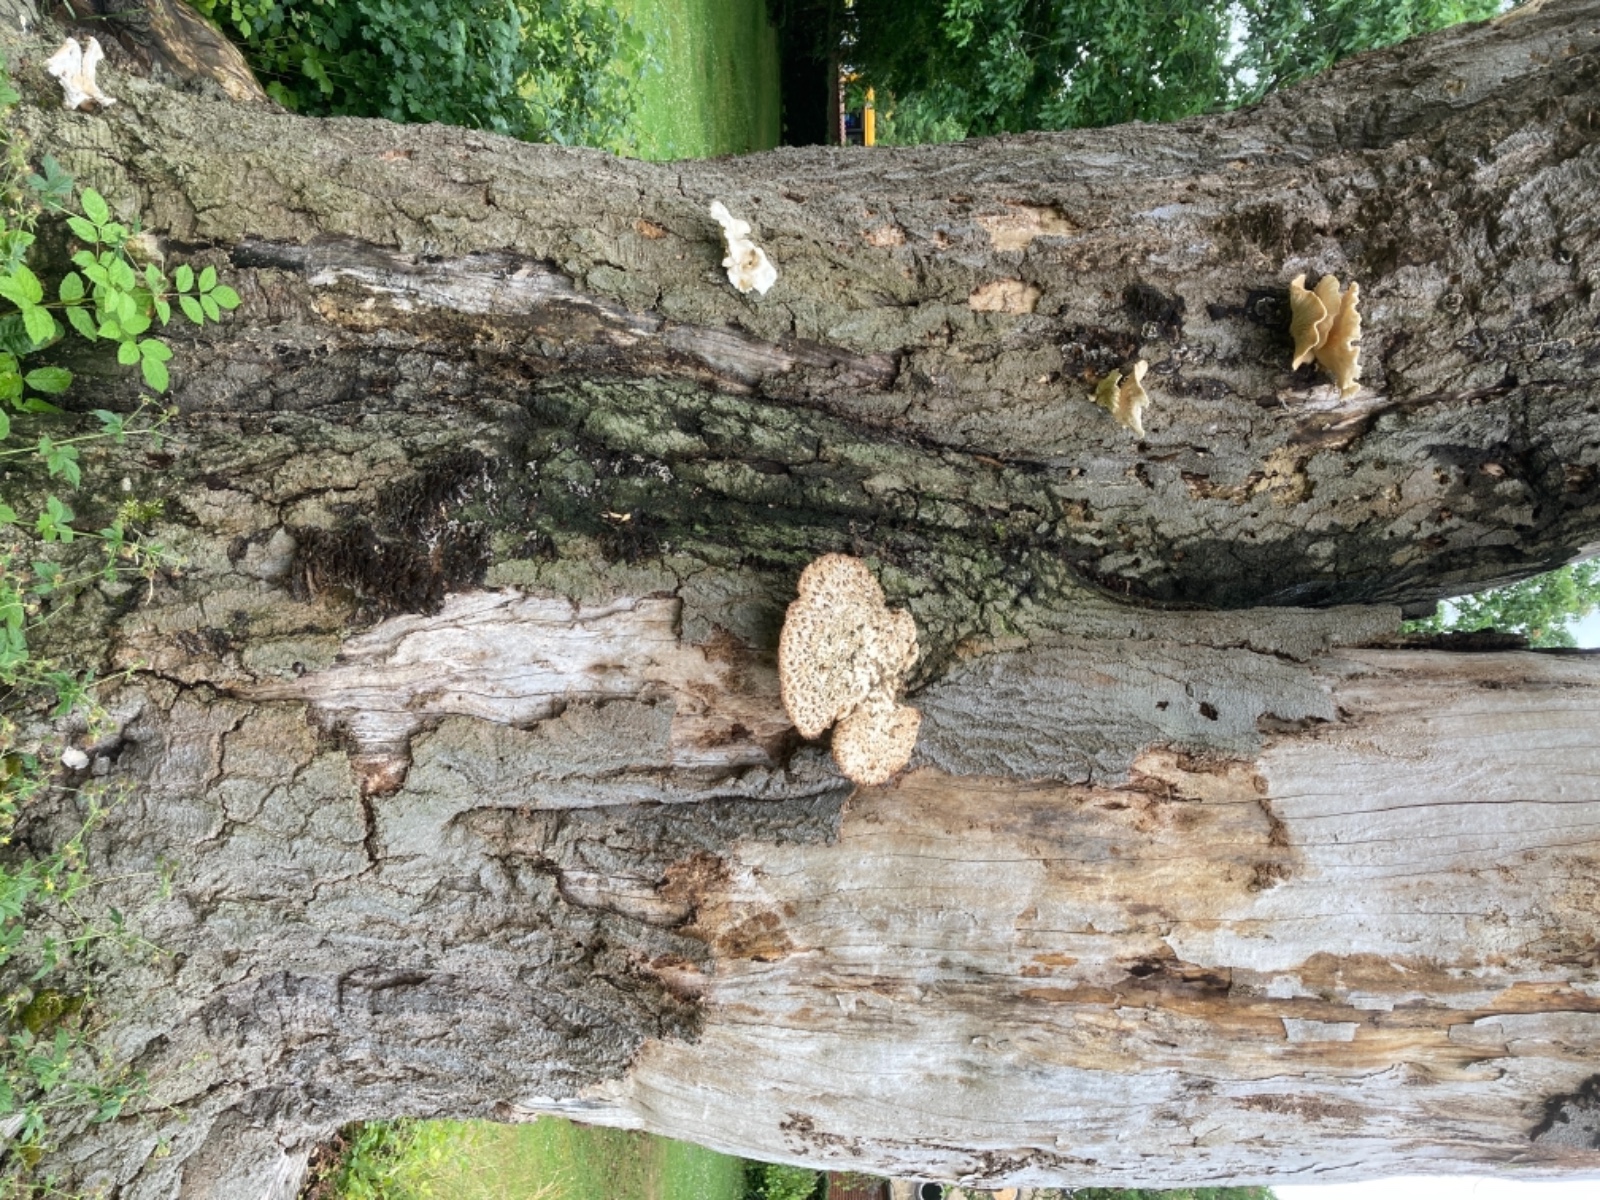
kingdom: Fungi
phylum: Basidiomycota
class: Agaricomycetes
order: Polyporales
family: Polyporaceae
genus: Cerioporus
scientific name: Cerioporus squamosus
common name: skællet stilkporesvamp
